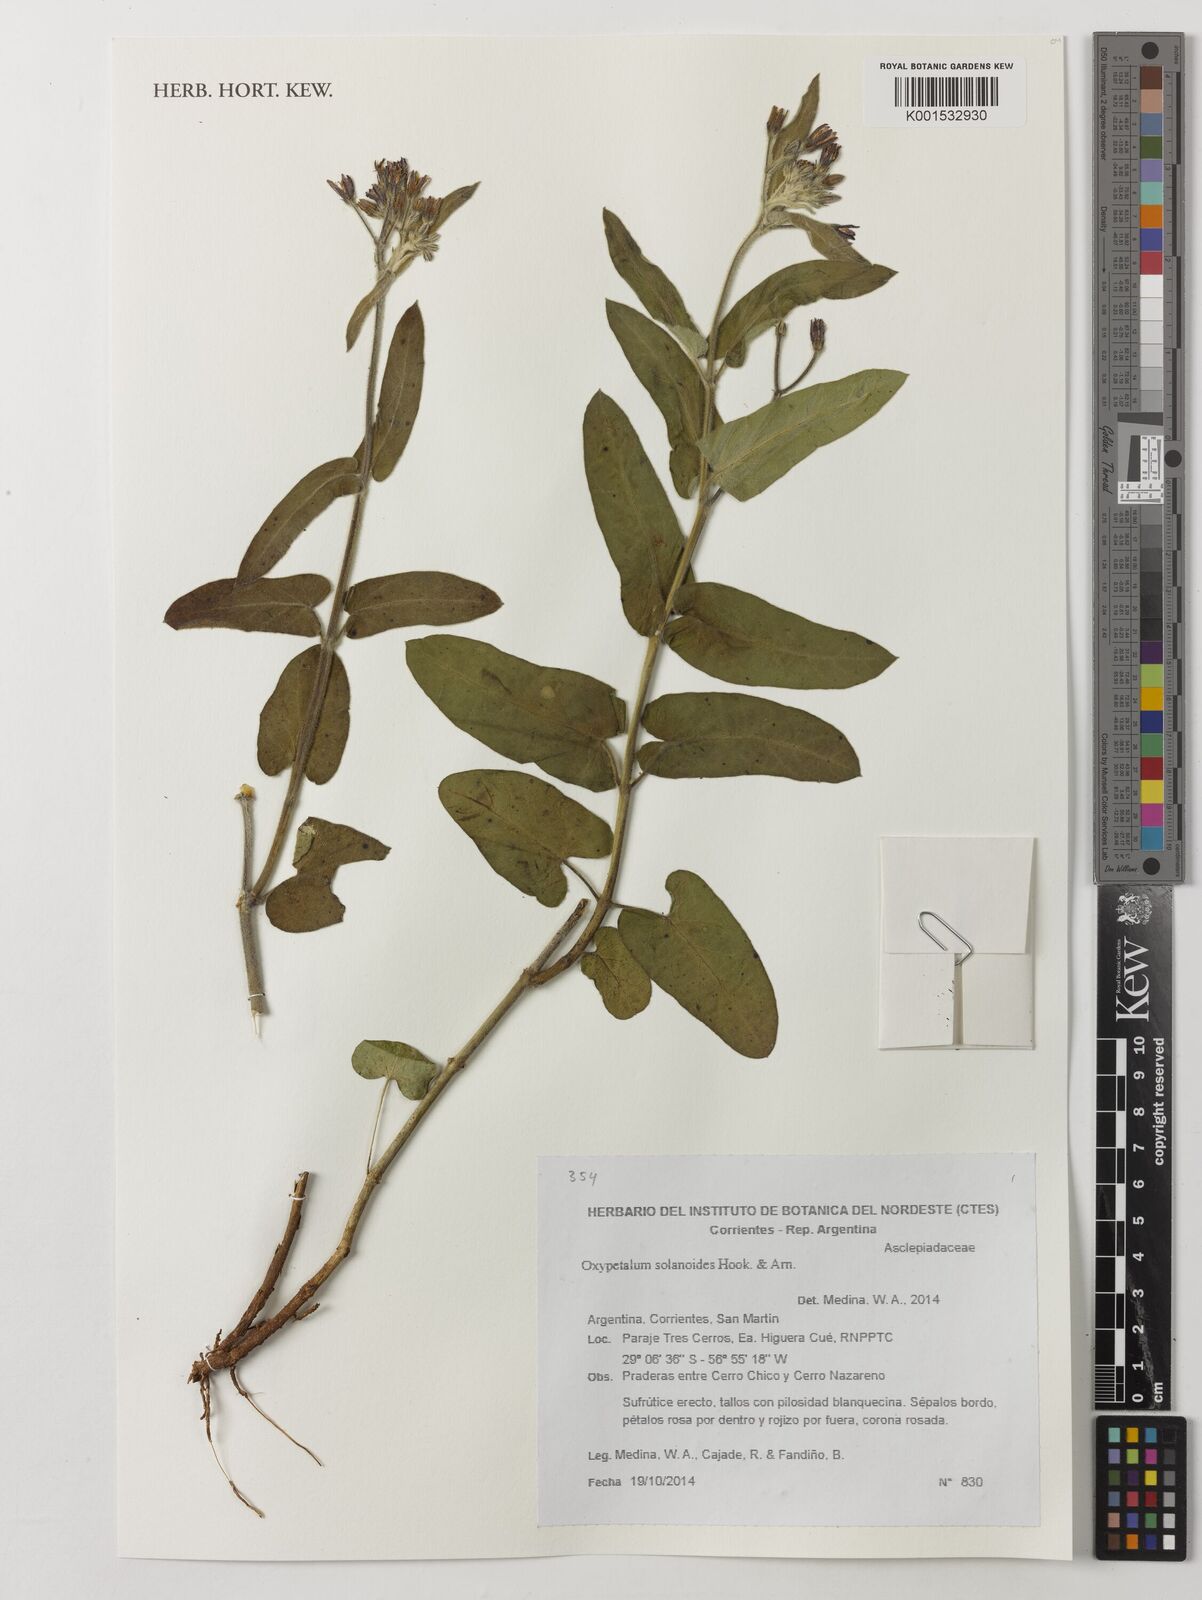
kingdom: Plantae
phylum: Tracheophyta
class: Magnoliopsida
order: Gentianales
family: Apocynaceae
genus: Oxypetalum
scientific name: Oxypetalum solanoides
